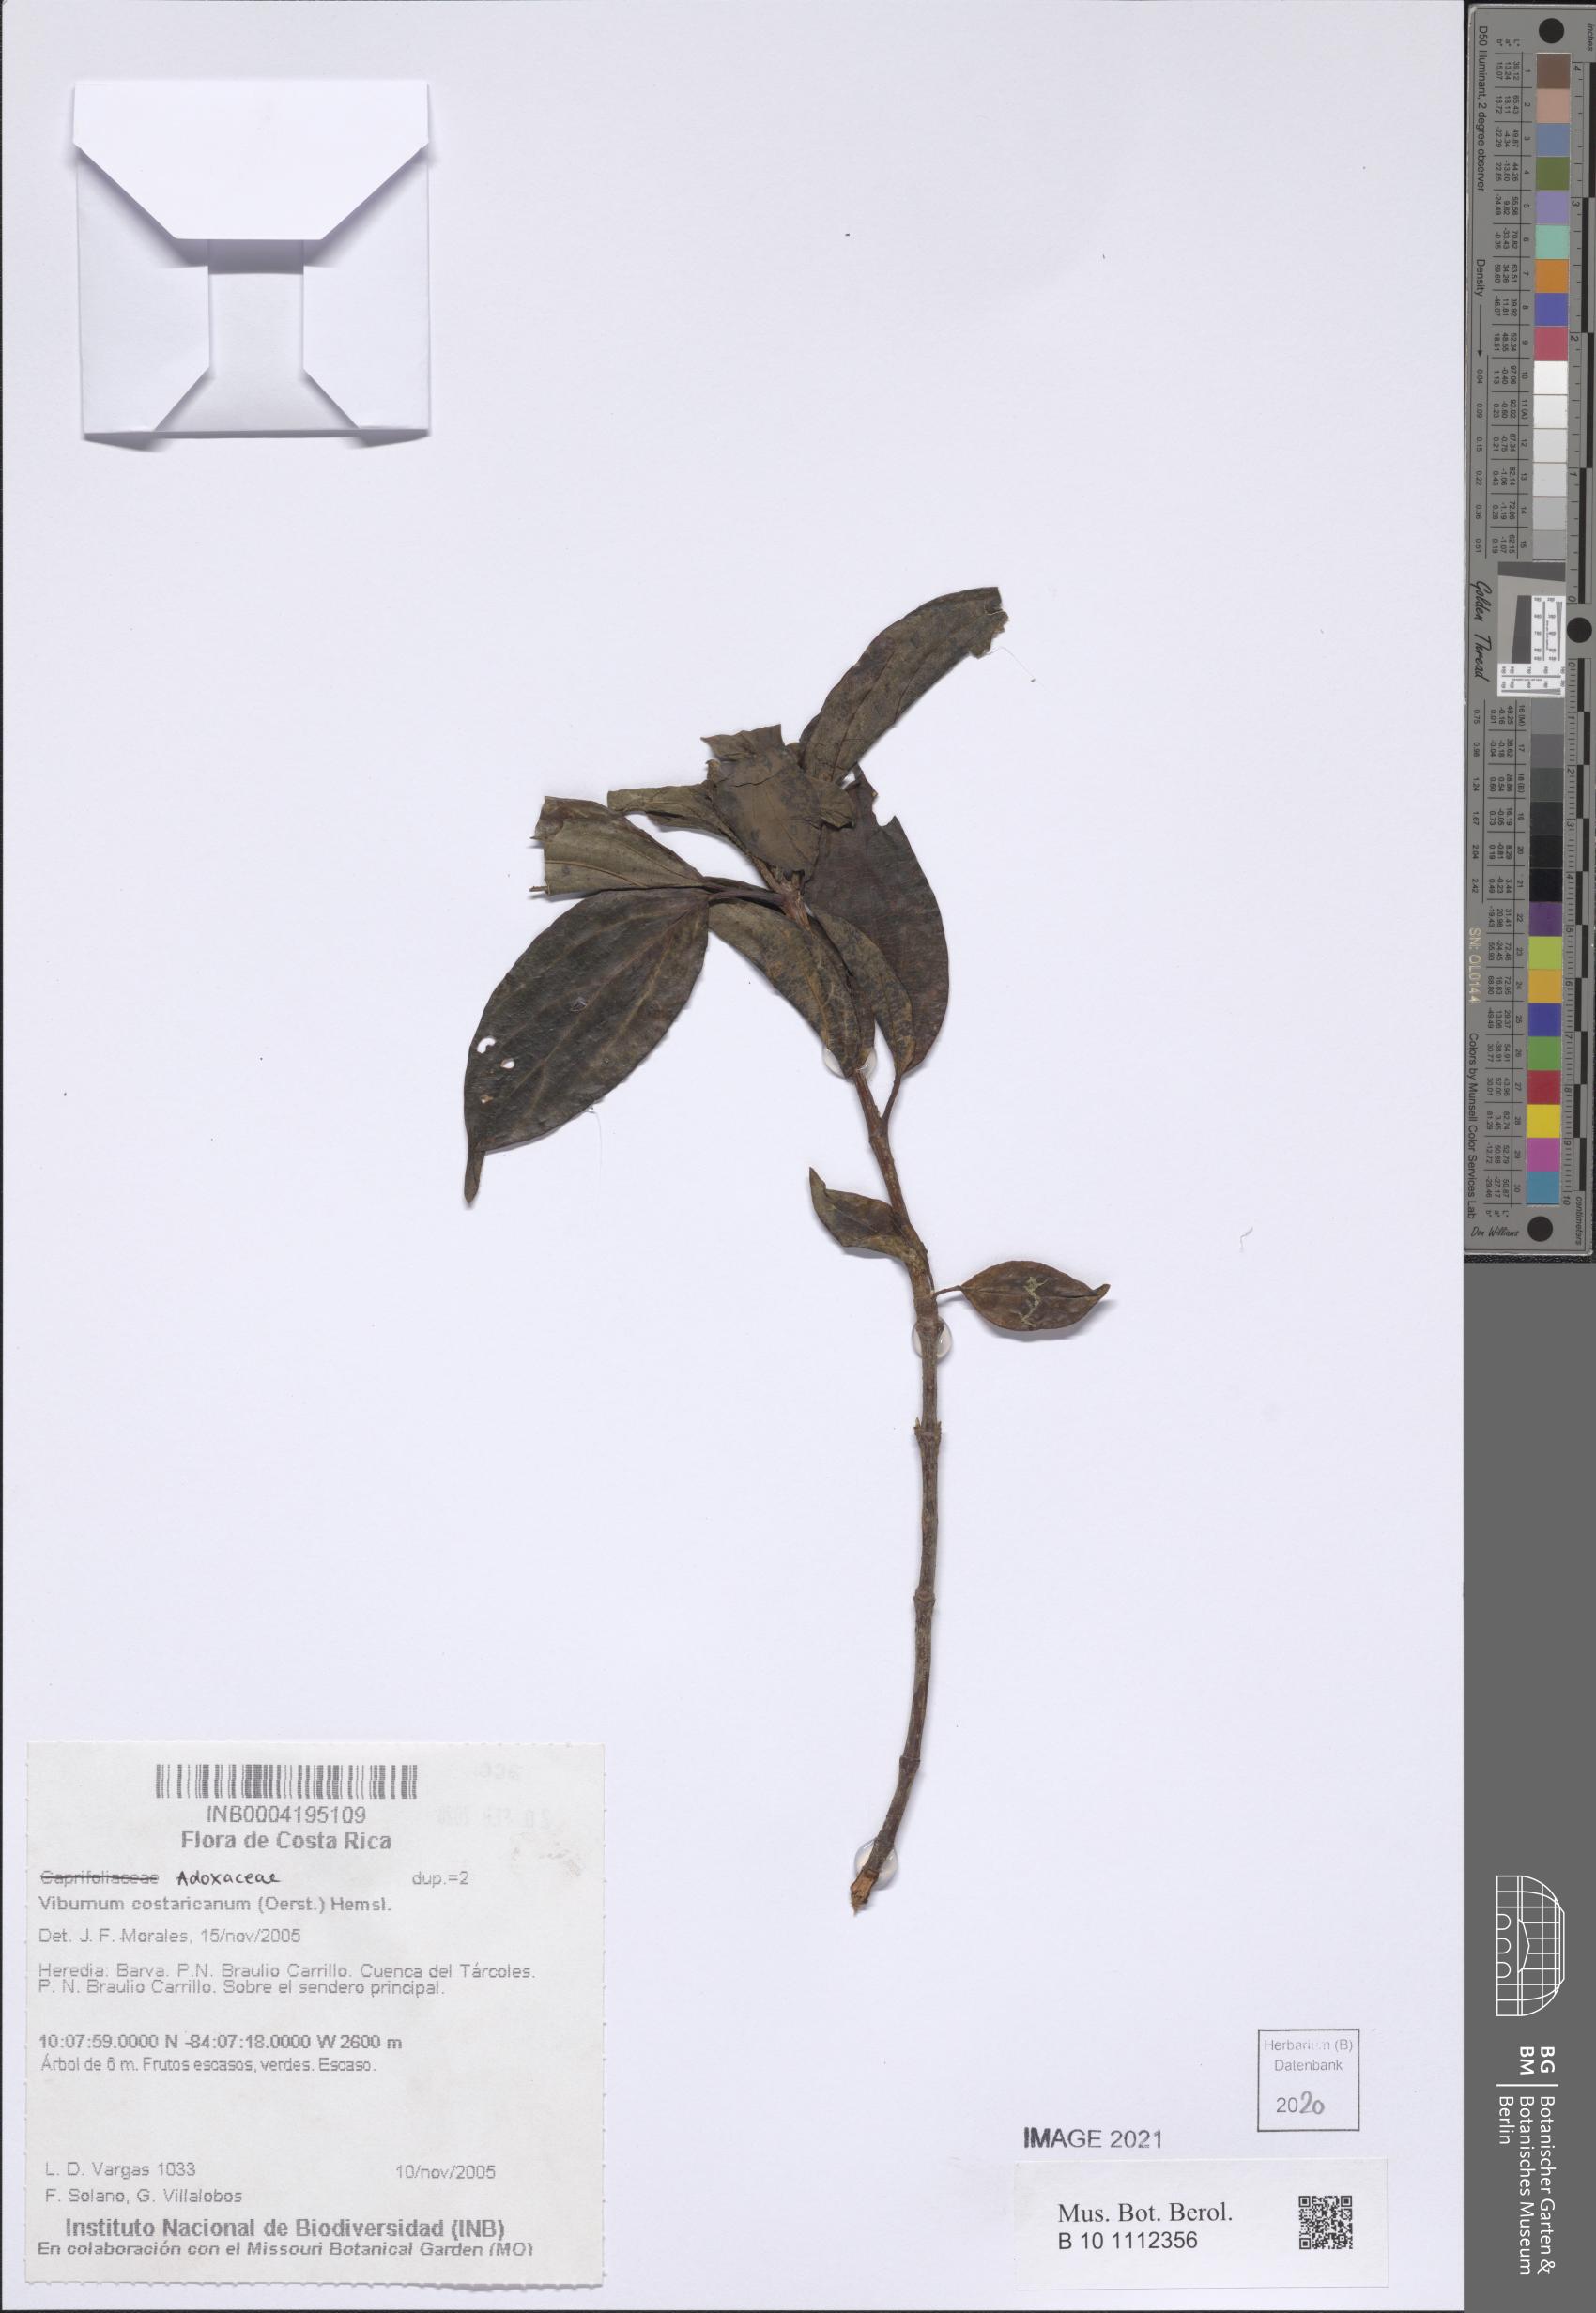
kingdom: Plantae
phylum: Tracheophyta
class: Magnoliopsida
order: Dipsacales
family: Viburnaceae
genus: Viburnum
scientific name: Viburnum costaricanum
